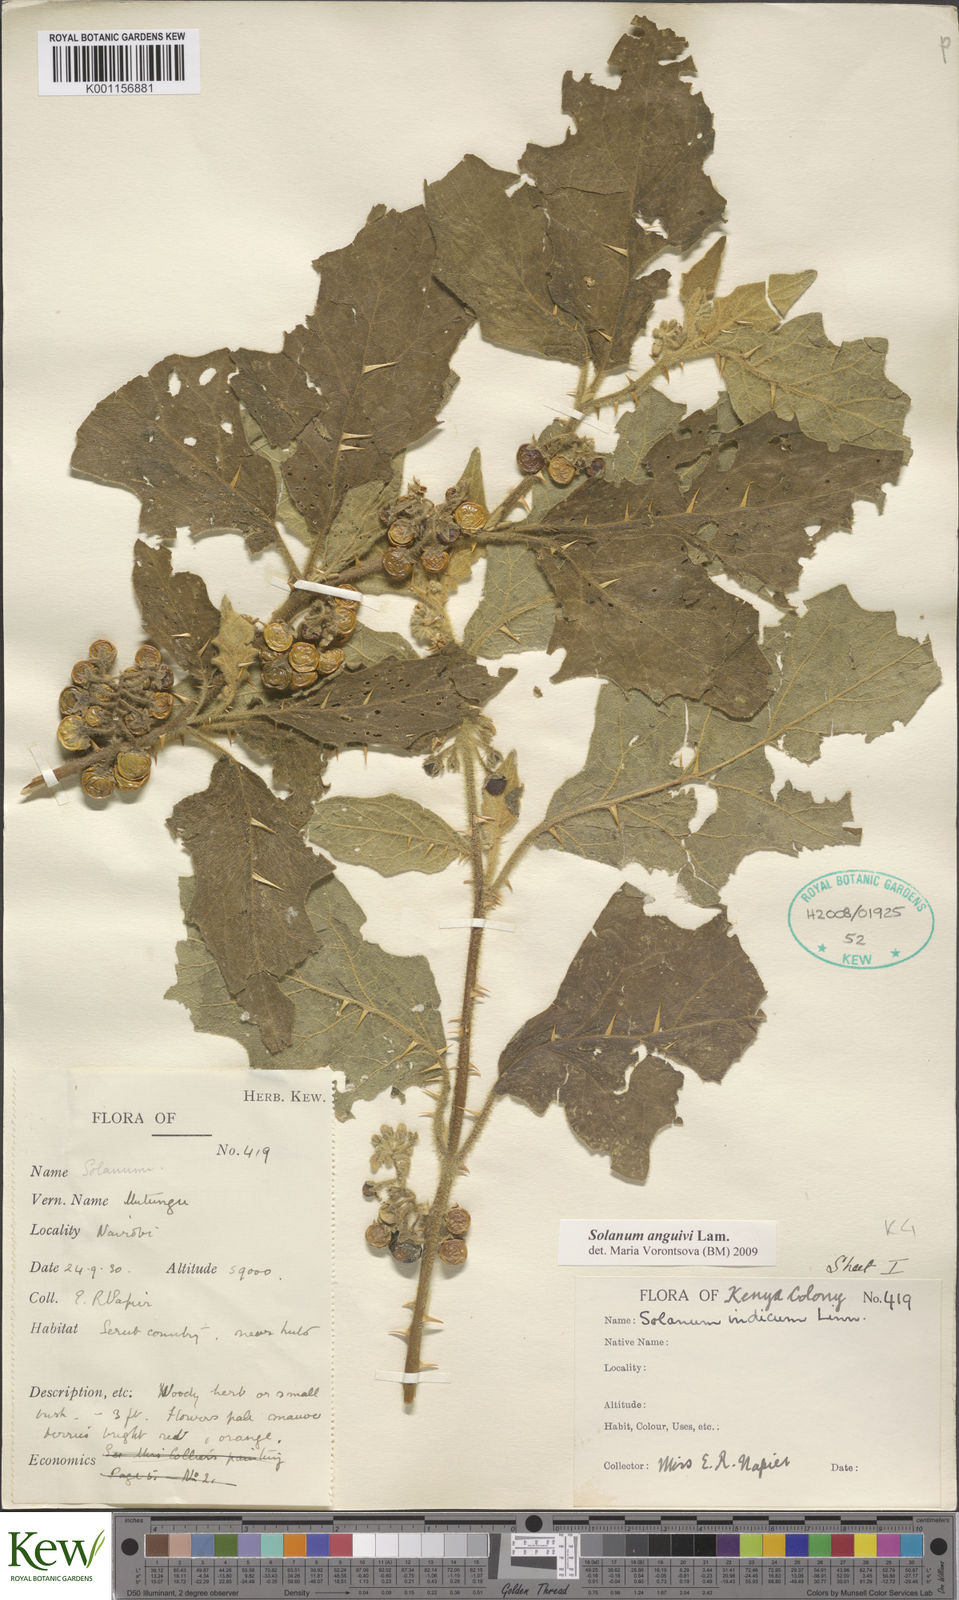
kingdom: Plantae
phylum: Tracheophyta
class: Magnoliopsida
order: Solanales
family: Solanaceae
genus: Solanum
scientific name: Solanum anguivi
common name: Forest bitterberry
